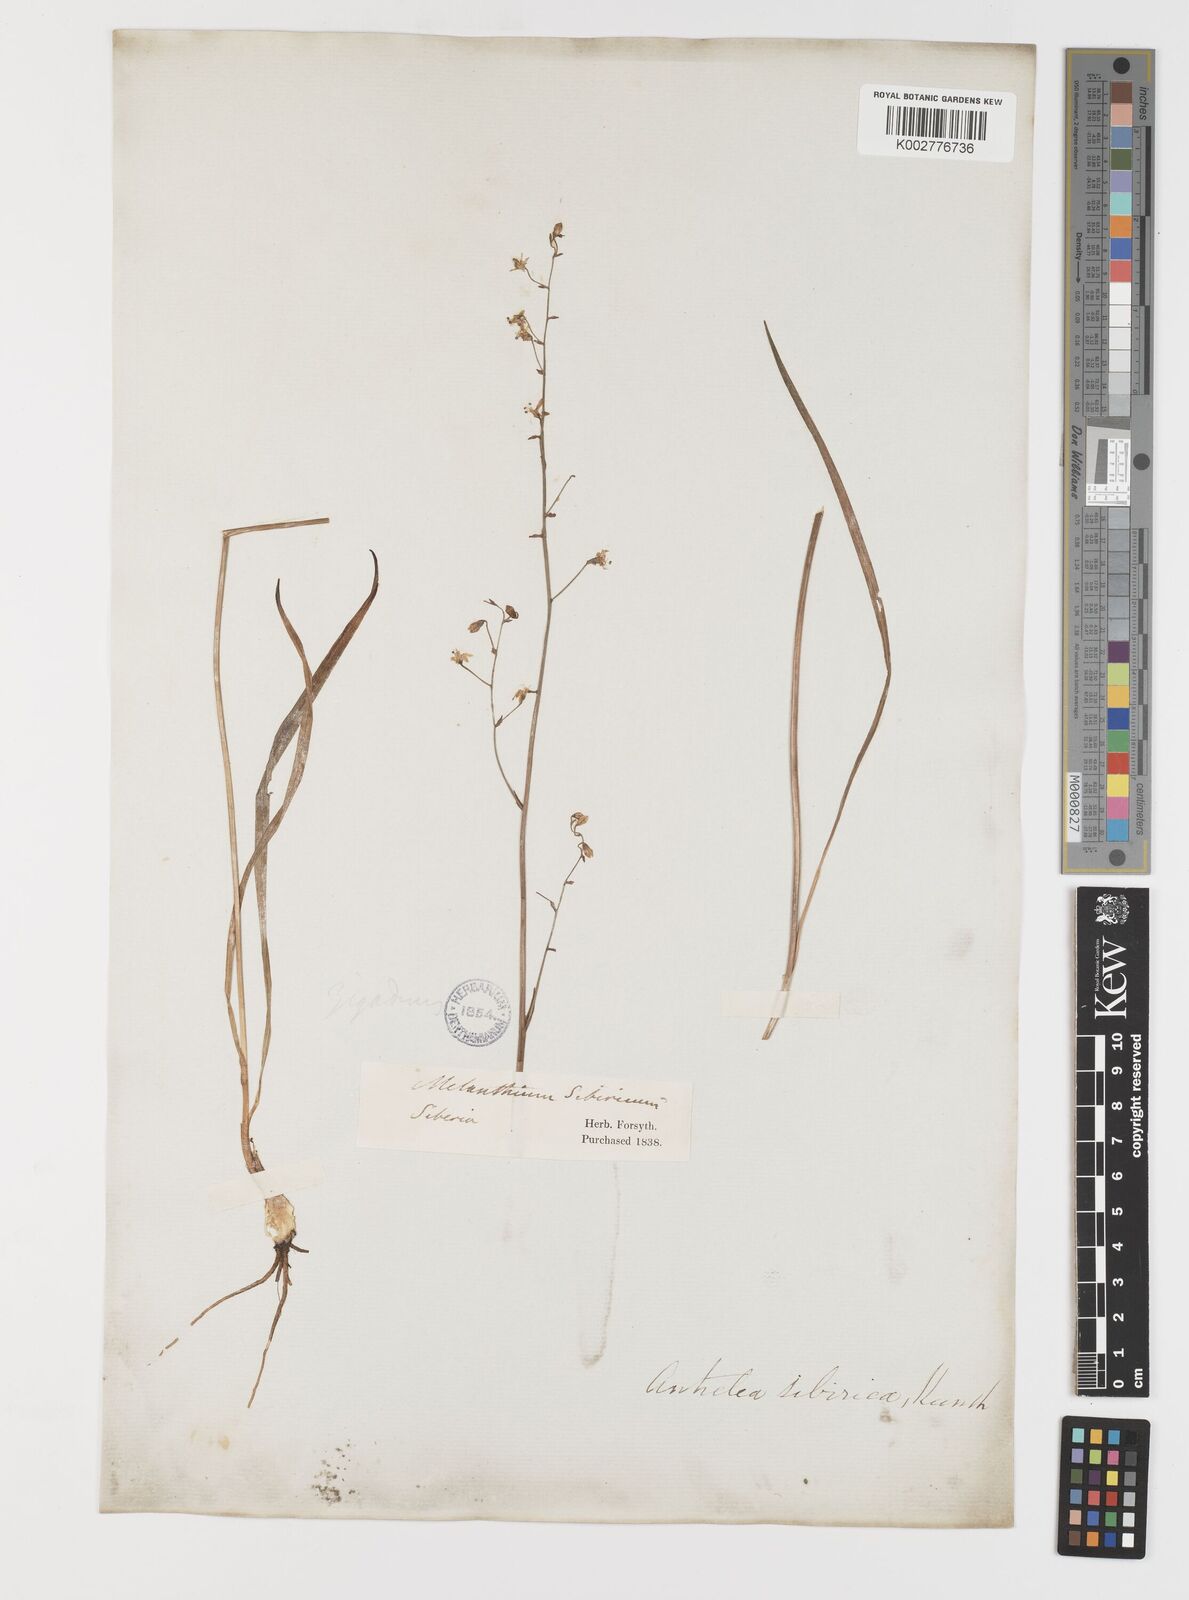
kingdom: Plantae
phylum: Tracheophyta
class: Liliopsida
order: Liliales
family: Melanthiaceae
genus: Anticlea
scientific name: Anticlea sibirica
